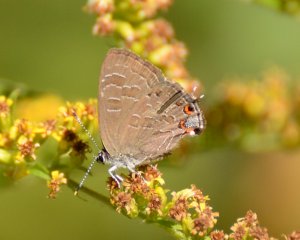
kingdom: Animalia
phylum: Arthropoda
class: Insecta
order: Lepidoptera
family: Lycaenidae
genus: Satyrium
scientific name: Satyrium liparops
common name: Striped Hairstreak
